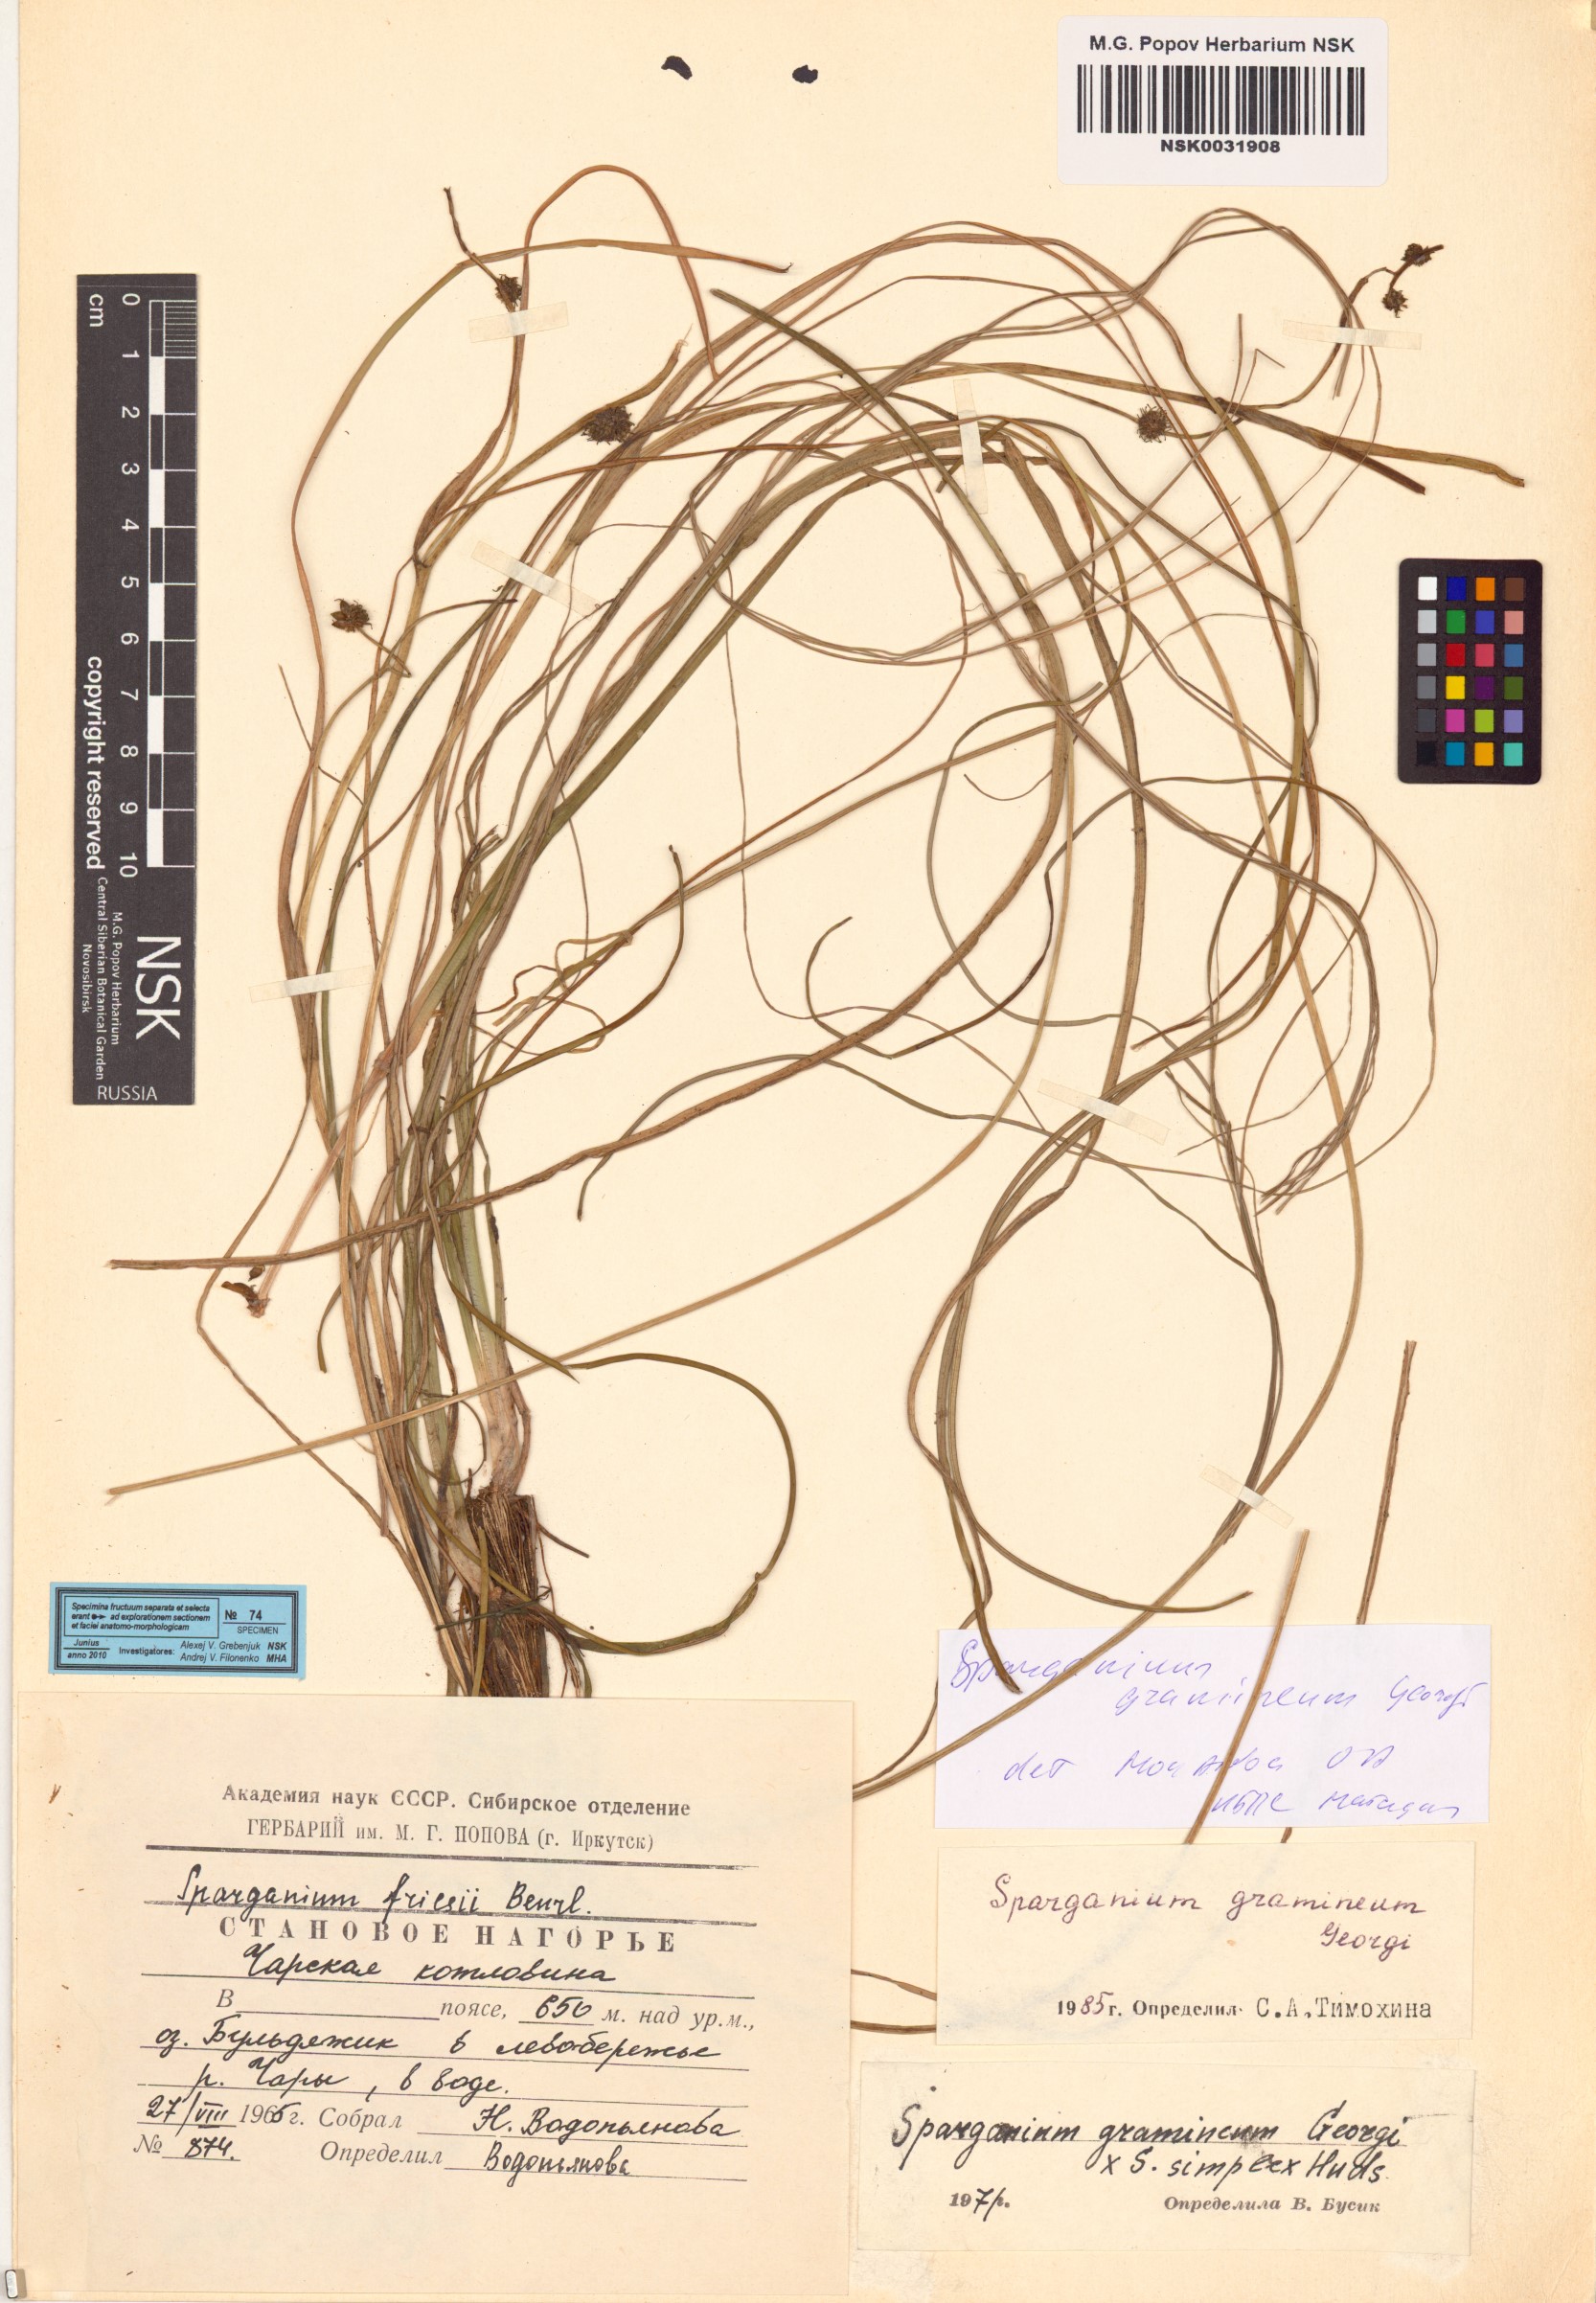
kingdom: Plantae
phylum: Tracheophyta
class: Liliopsida
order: Poales
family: Typhaceae
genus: Sparganium
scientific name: Sparganium gramineum
